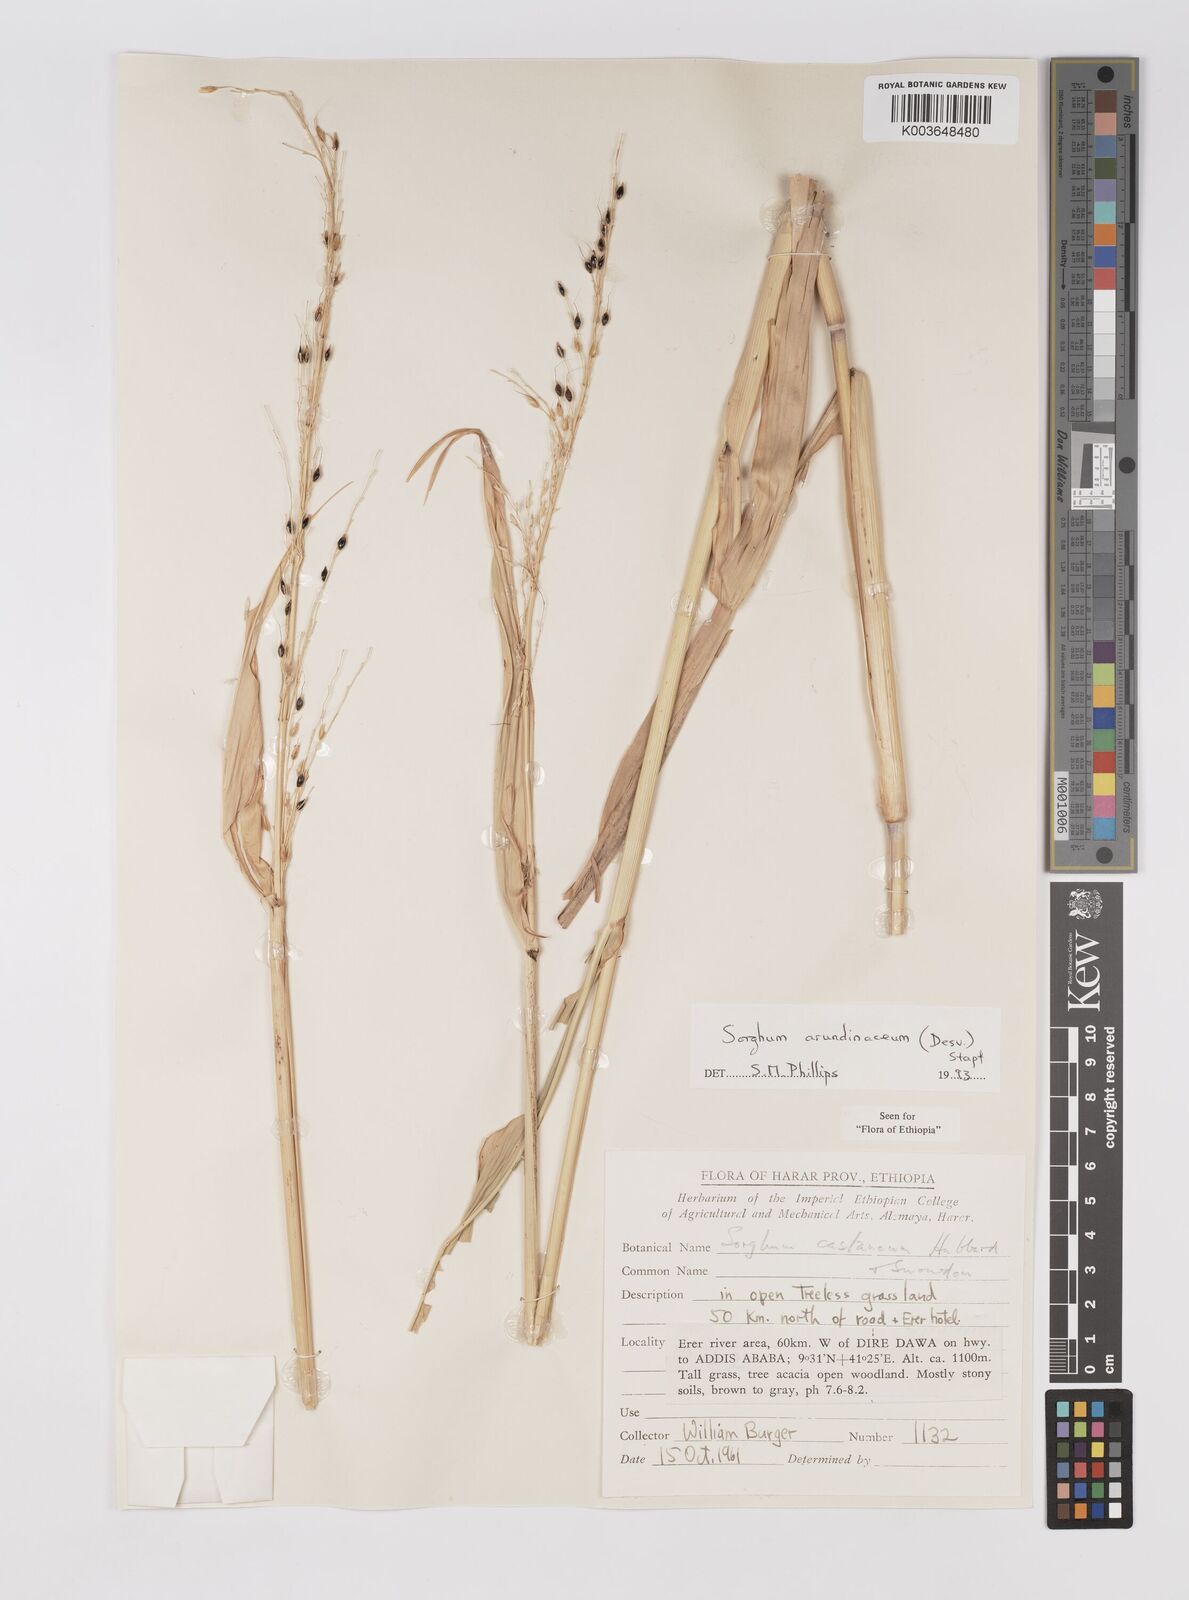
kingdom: Plantae
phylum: Tracheophyta
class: Liliopsida
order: Poales
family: Poaceae
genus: Sorghum
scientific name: Sorghum arundinaceum
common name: Sorghum
